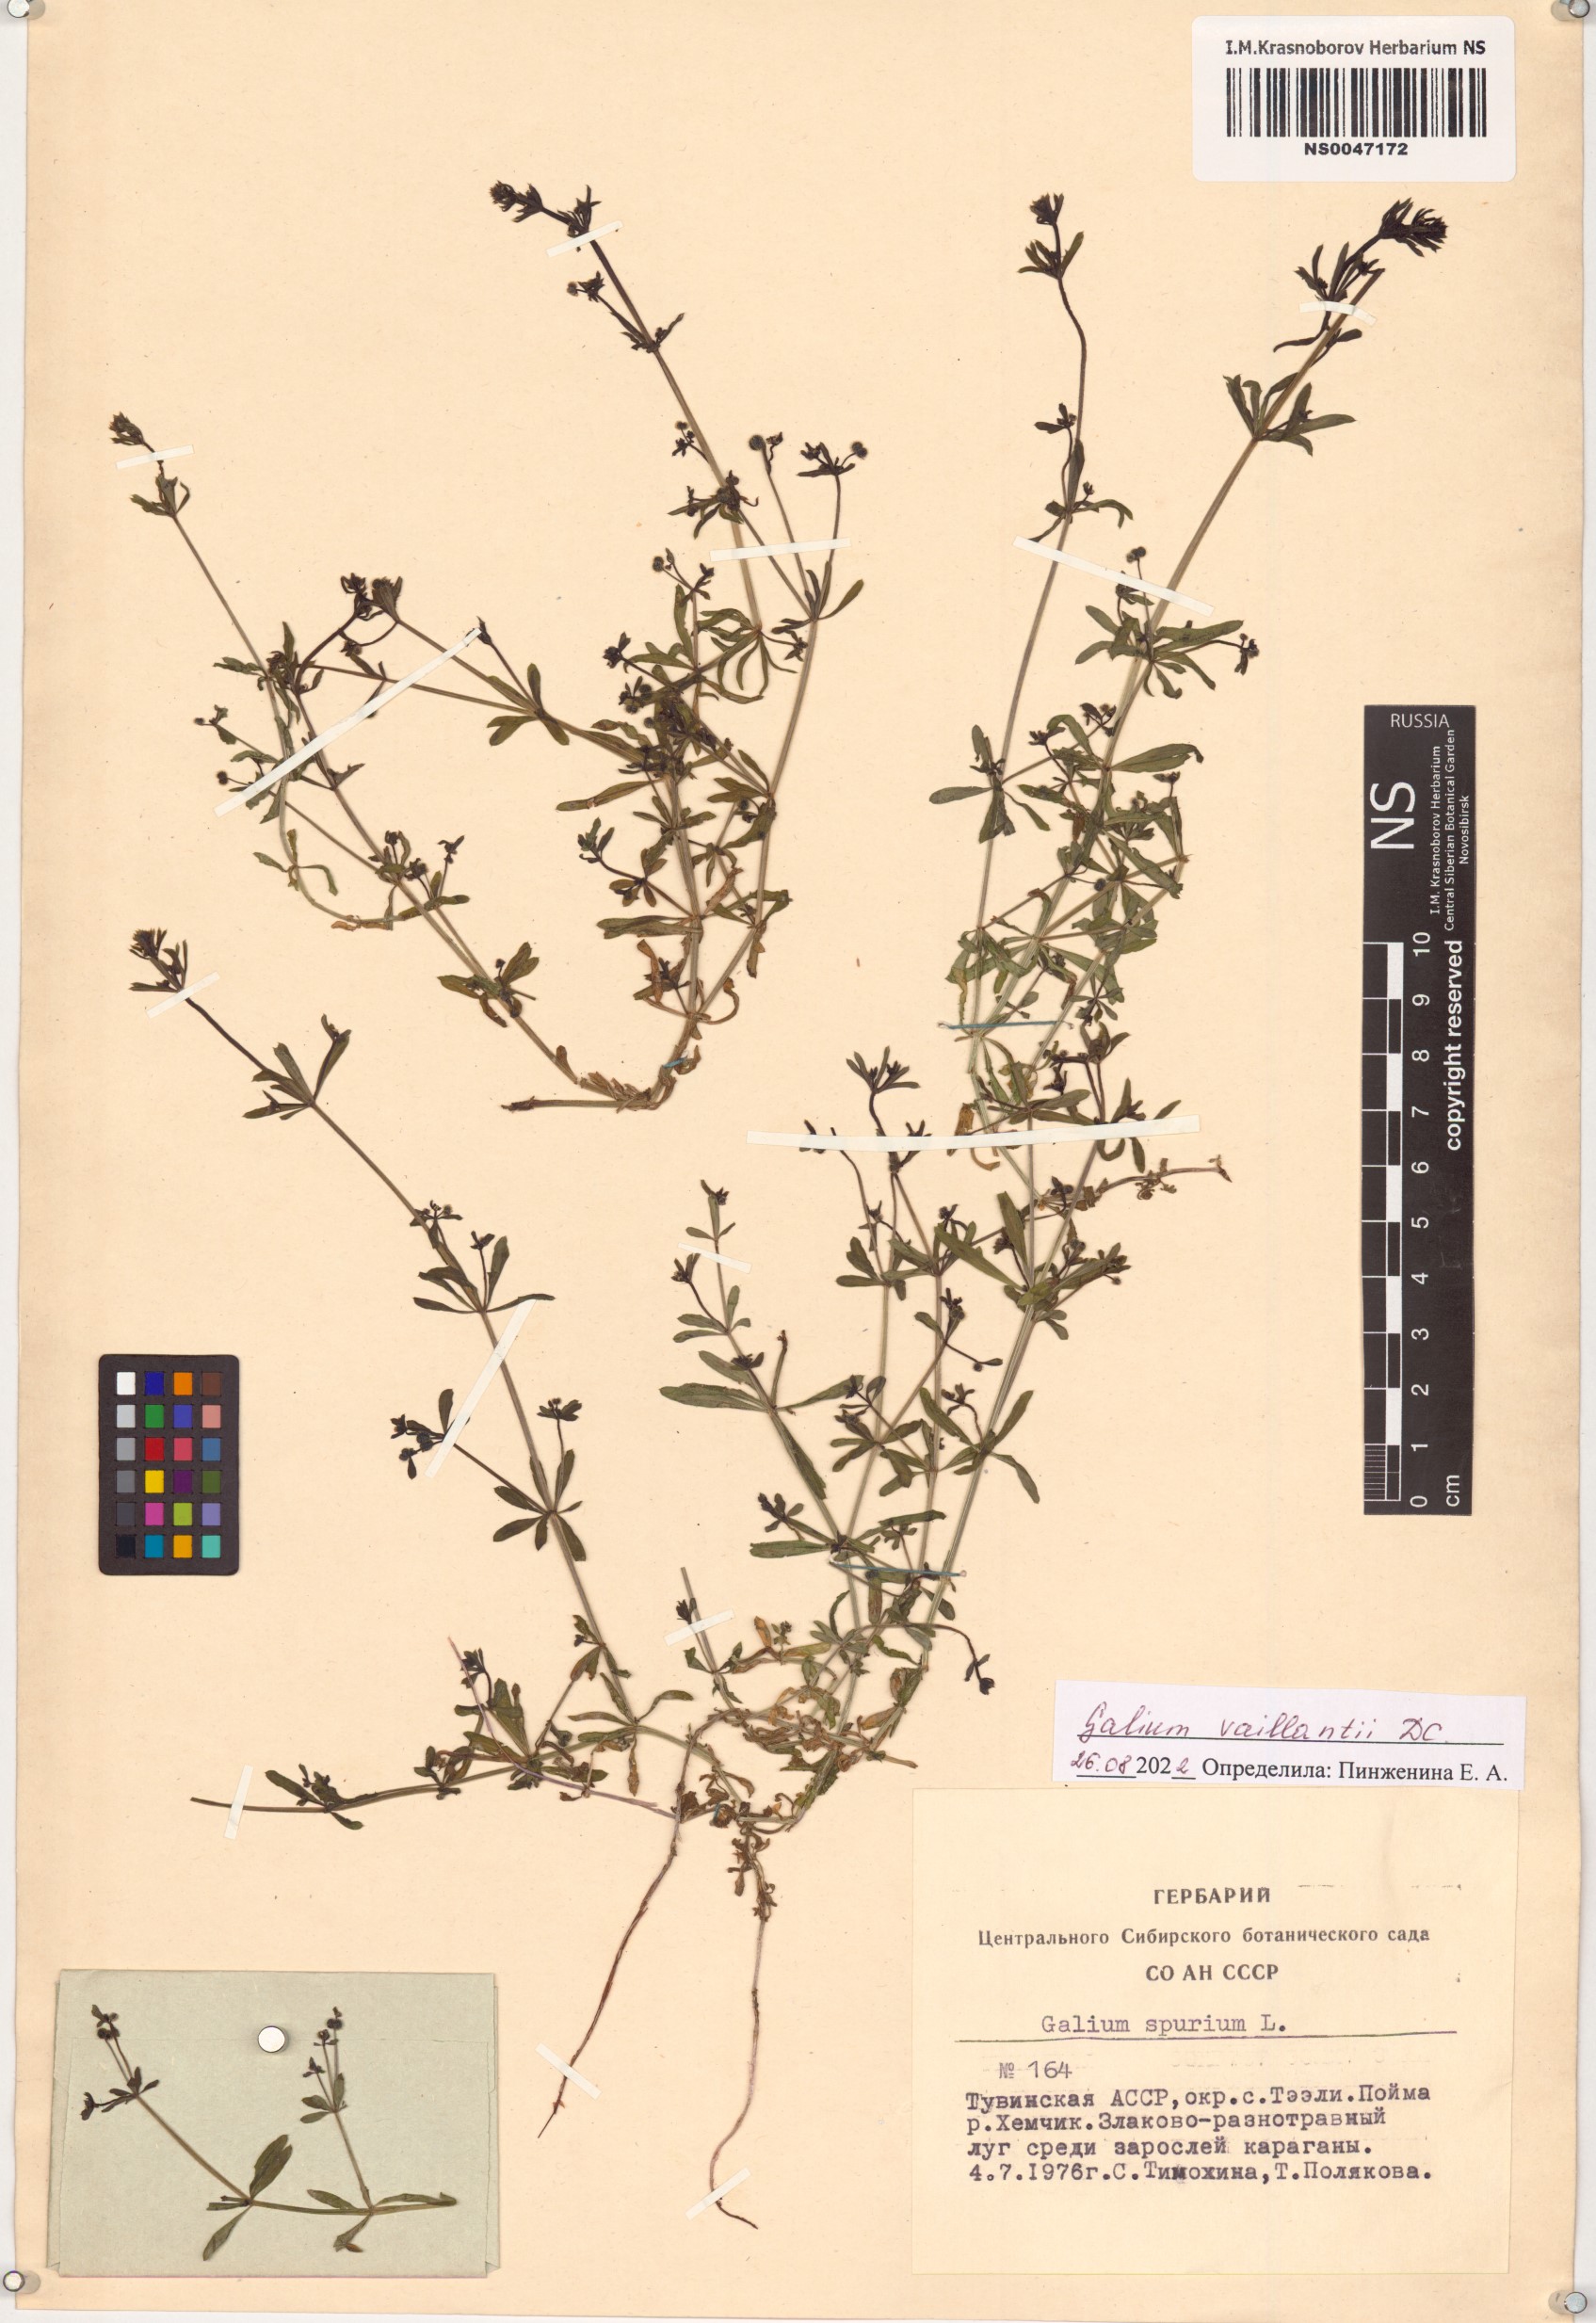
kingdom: Plantae
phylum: Tracheophyta
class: Magnoliopsida
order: Gentianales
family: Rubiaceae
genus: Galium
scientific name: Galium spurium
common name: False cleavers
